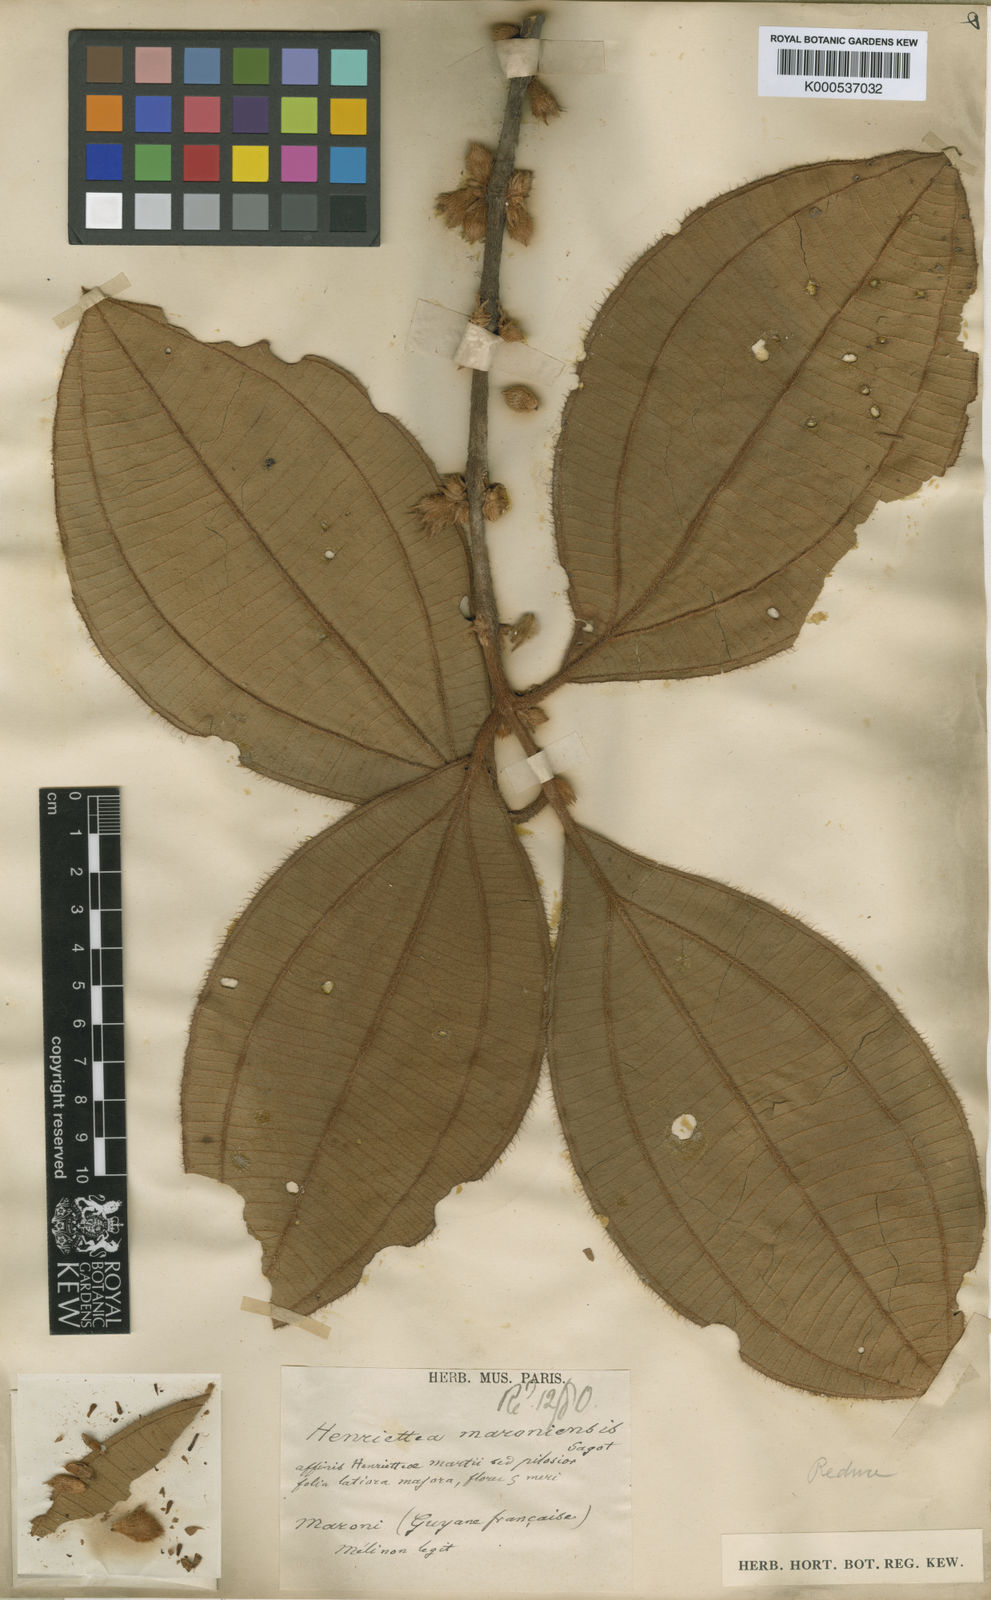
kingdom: Plantae
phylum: Tracheophyta
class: Magnoliopsida
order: Myrtales
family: Melastomataceae
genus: Henriettea
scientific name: Henriettea maroniensis
